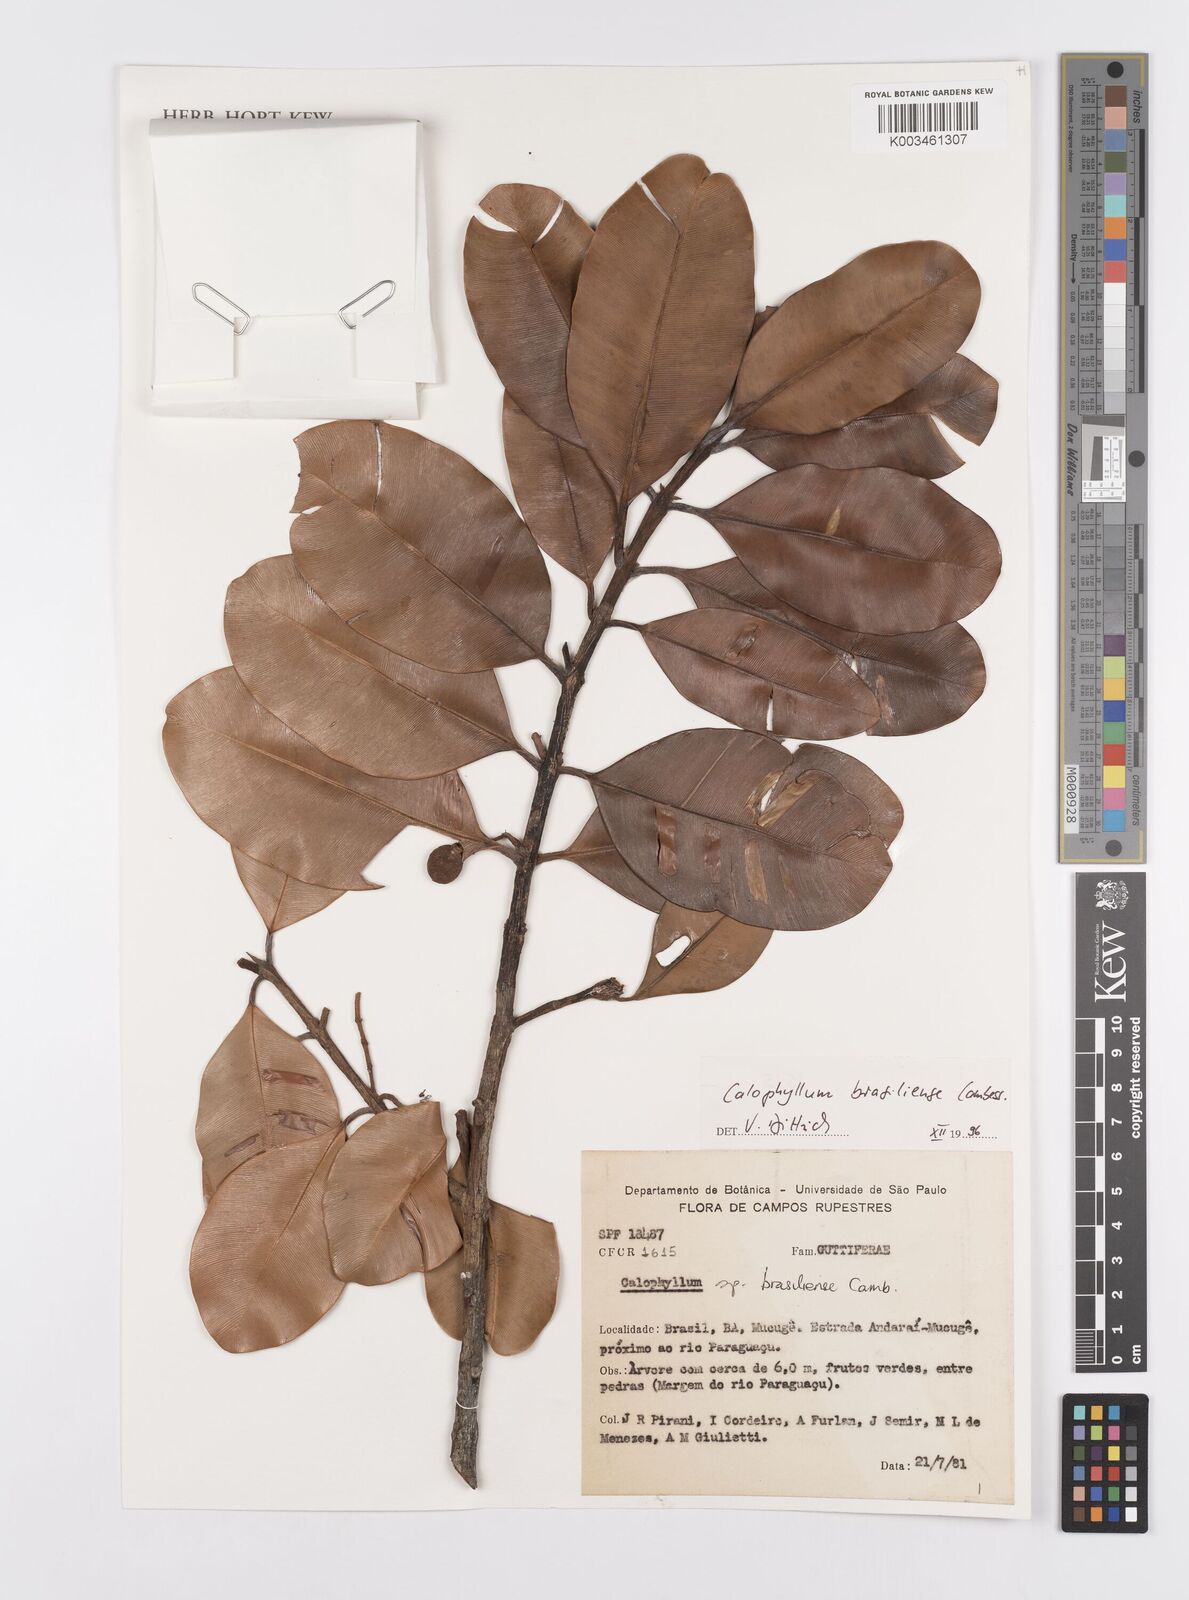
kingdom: Plantae
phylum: Tracheophyta
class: Magnoliopsida
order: Malpighiales
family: Calophyllaceae
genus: Calophyllum
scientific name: Calophyllum brasiliense
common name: Santa maria
